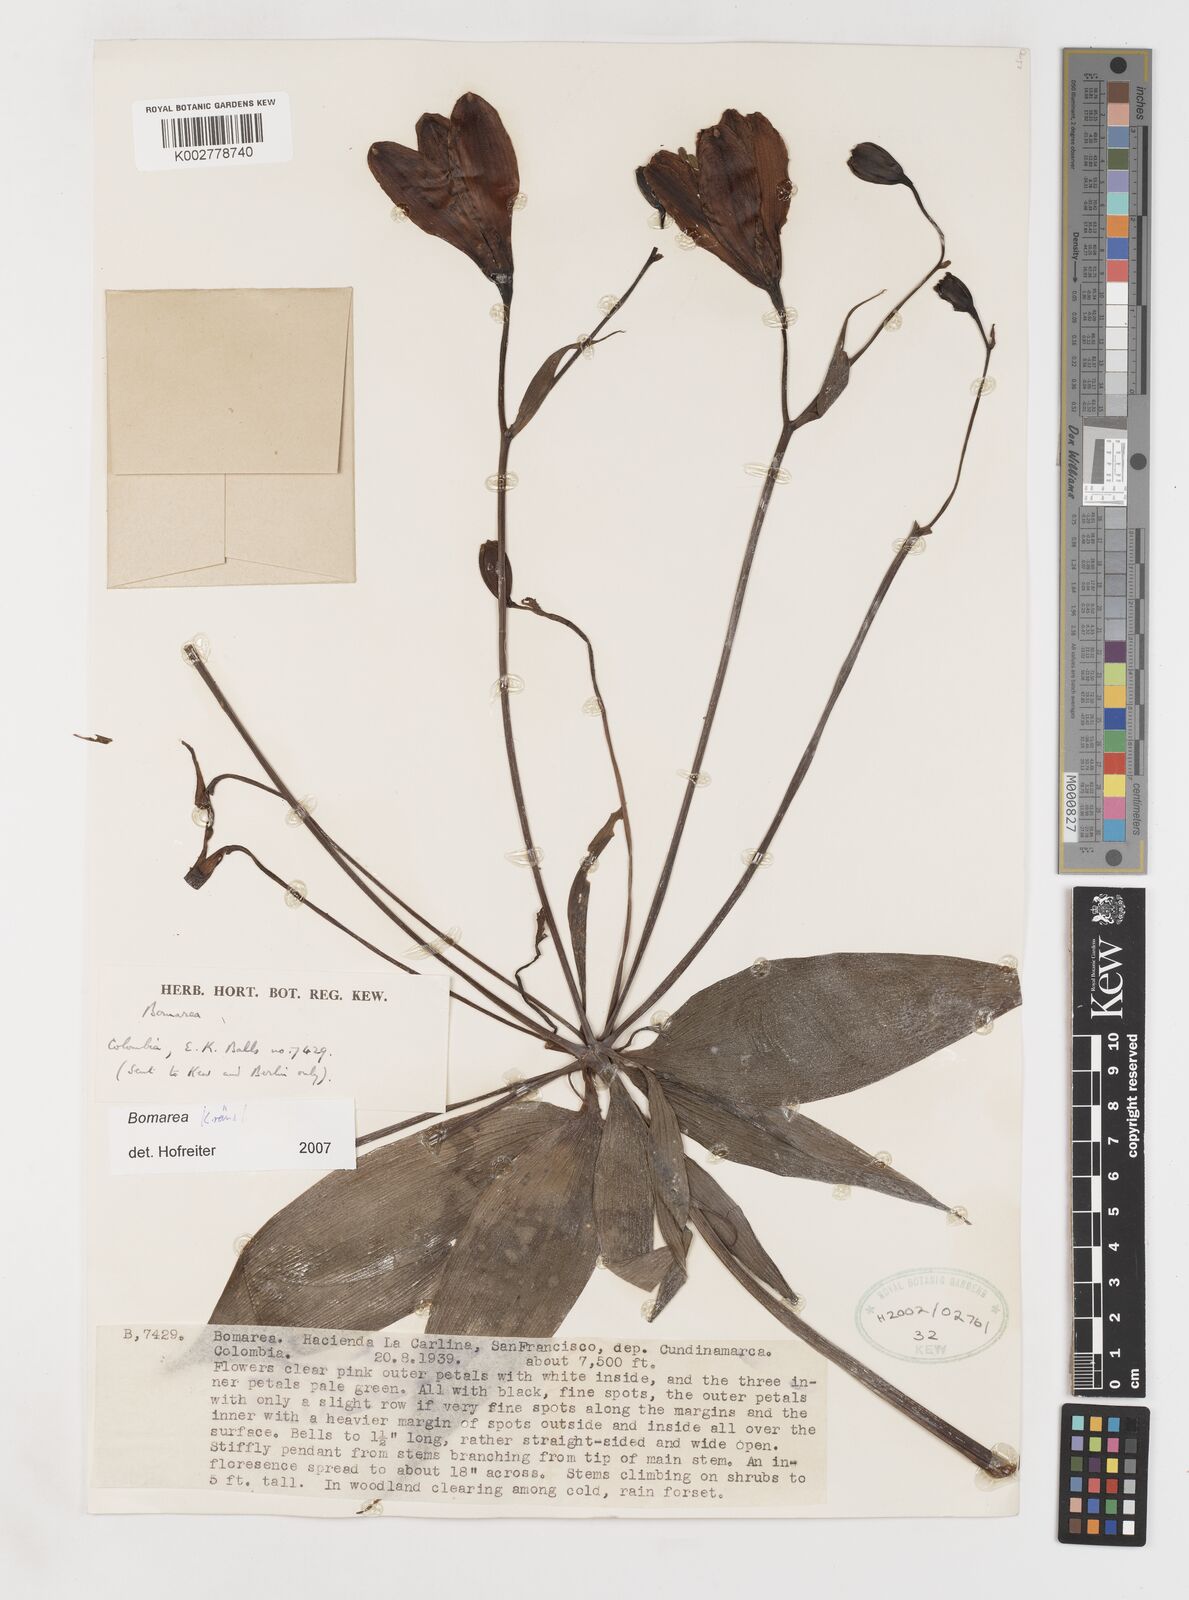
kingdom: Plantae
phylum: Tracheophyta
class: Liliopsida
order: Liliales
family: Alstroemeriaceae
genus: Bomarea
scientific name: Bomarea kraenzlinii
